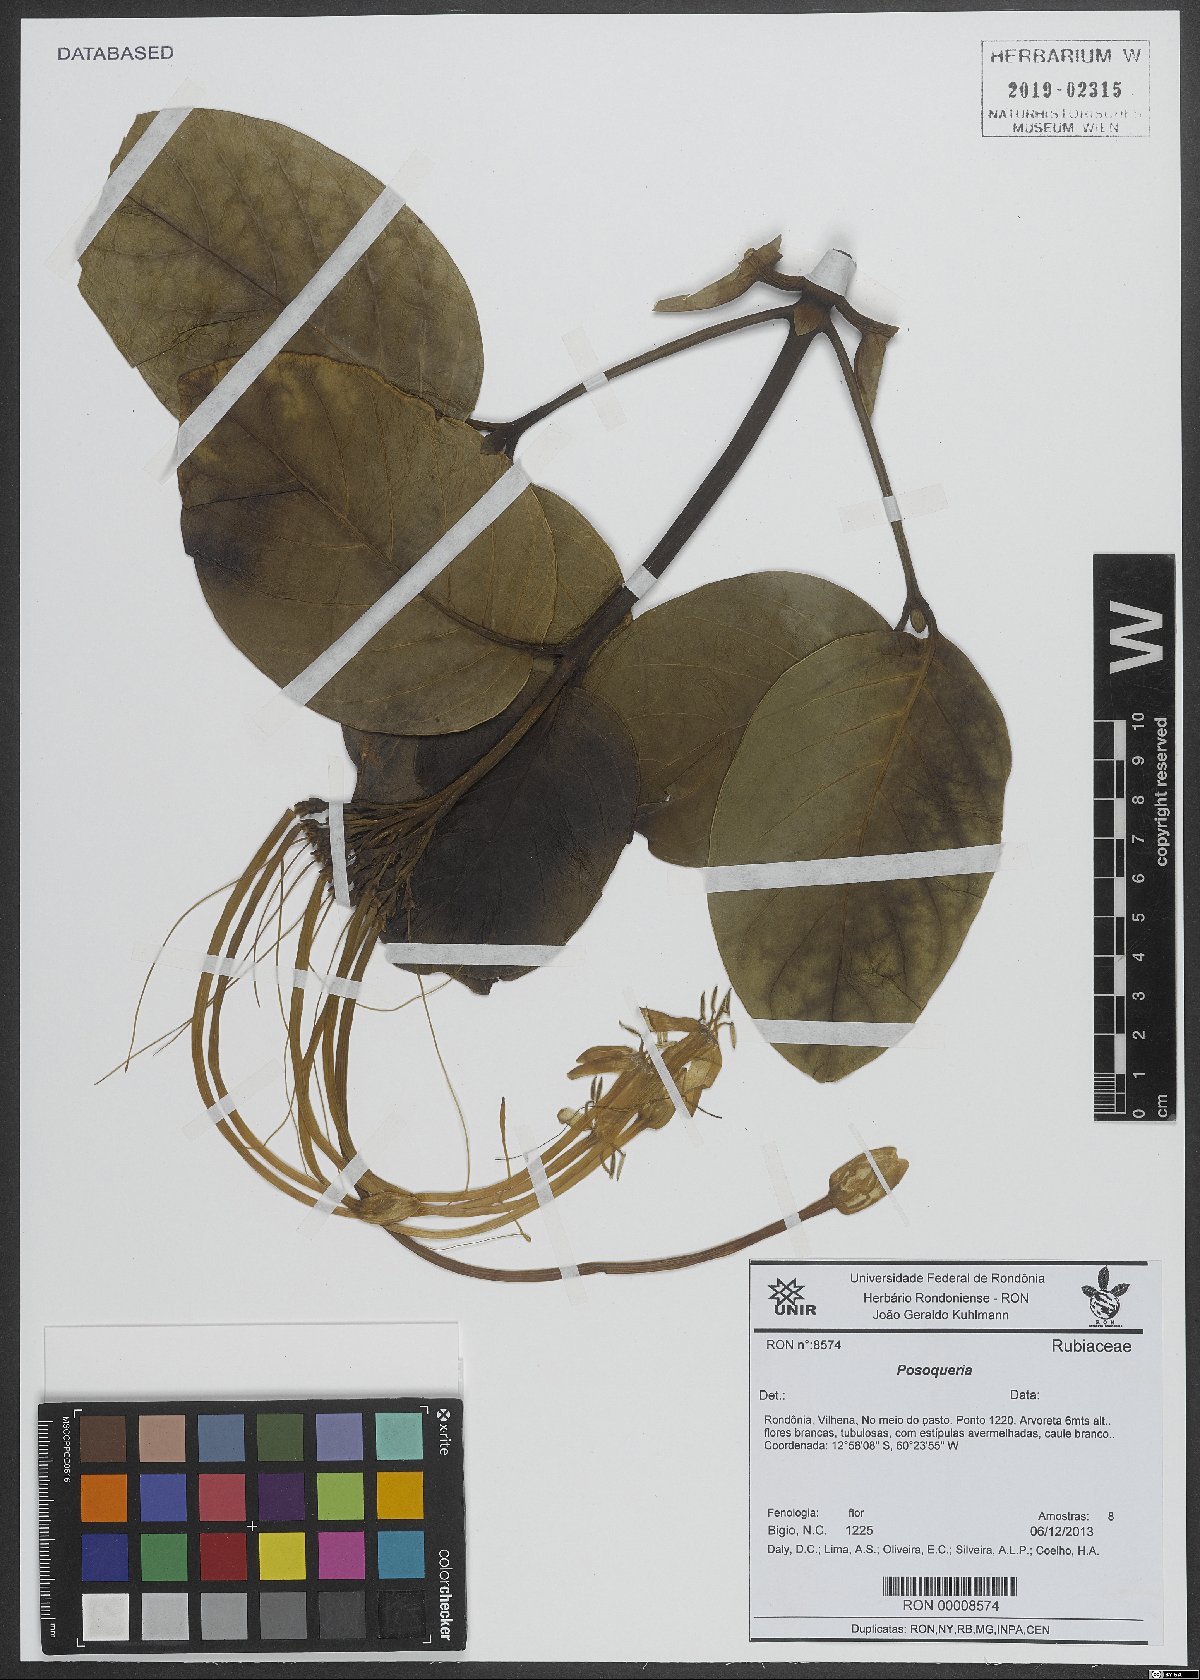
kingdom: Plantae
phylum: Tracheophyta
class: Magnoliopsida
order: Gentianales
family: Rubiaceae
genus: Posoqueria
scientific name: Posoqueria
